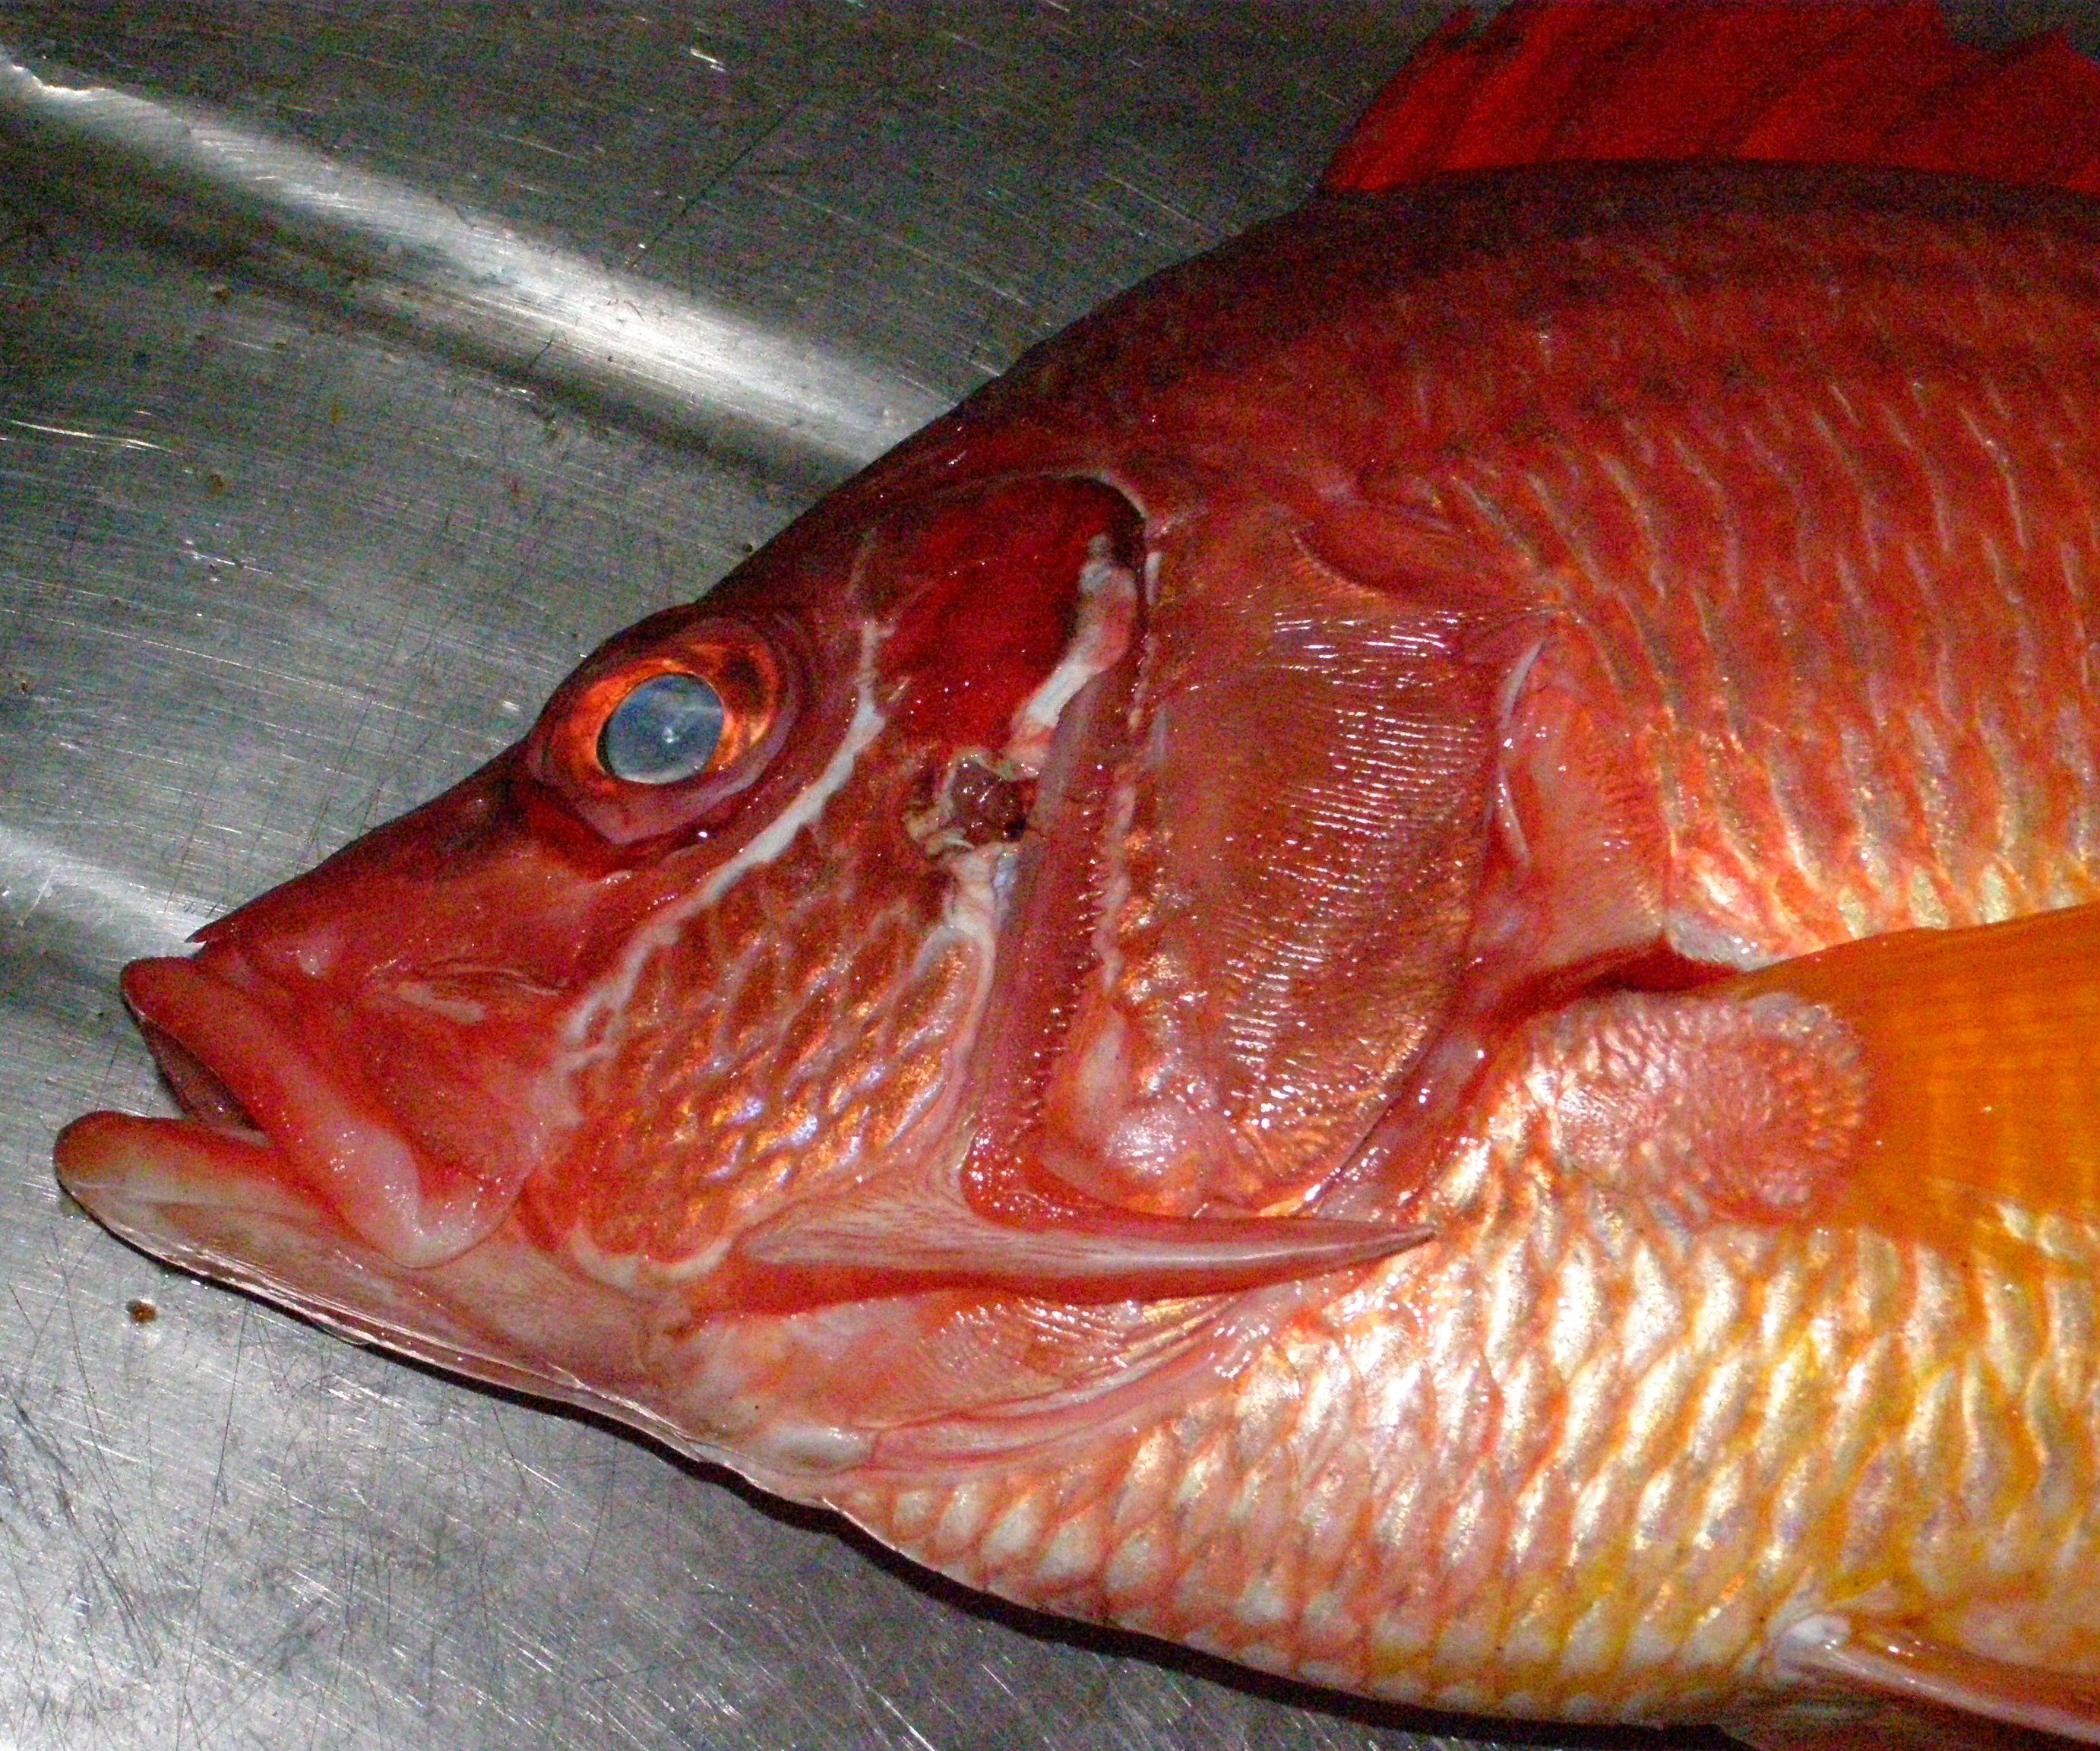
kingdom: Animalia
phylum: Chordata
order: Beryciformes
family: Holocentridae
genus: Sargocentron
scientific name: Sargocentron spiniferum
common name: Giant squirrelfish
